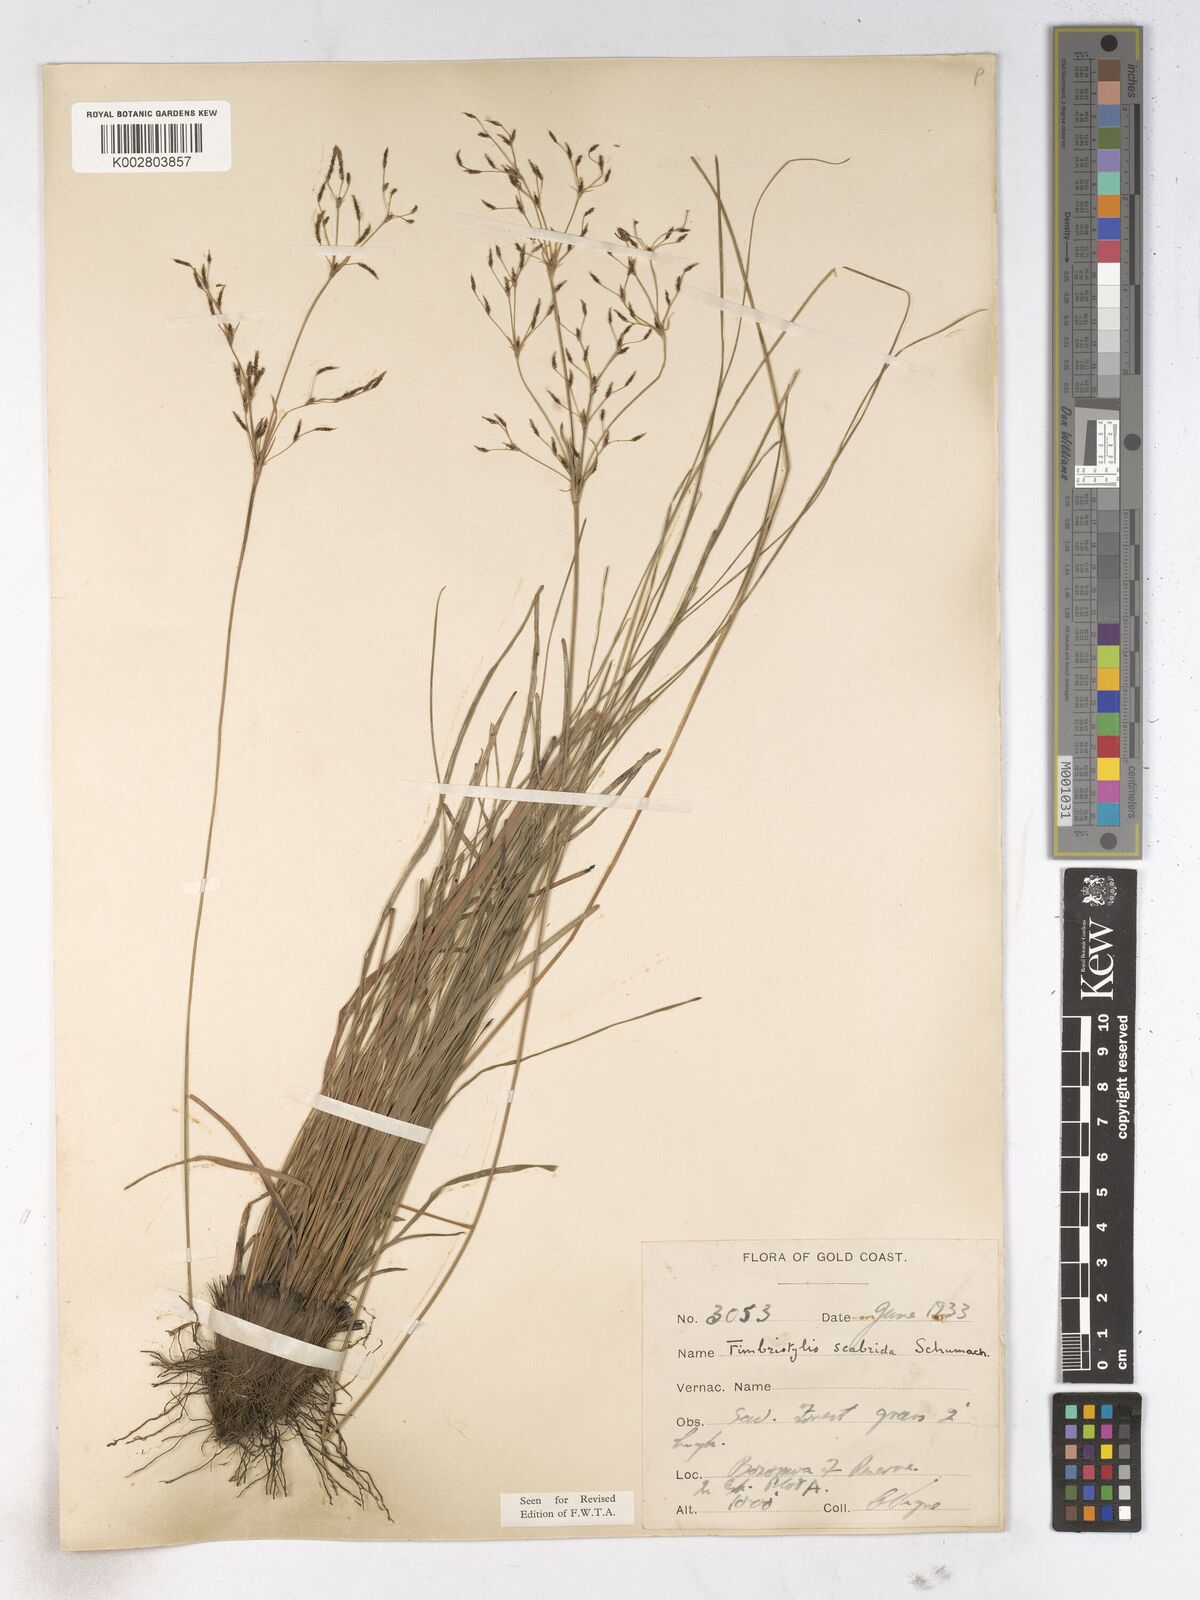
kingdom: Plantae
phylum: Tracheophyta
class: Liliopsida
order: Poales
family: Cyperaceae
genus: Fimbristylis
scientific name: Fimbristylis scabrida
